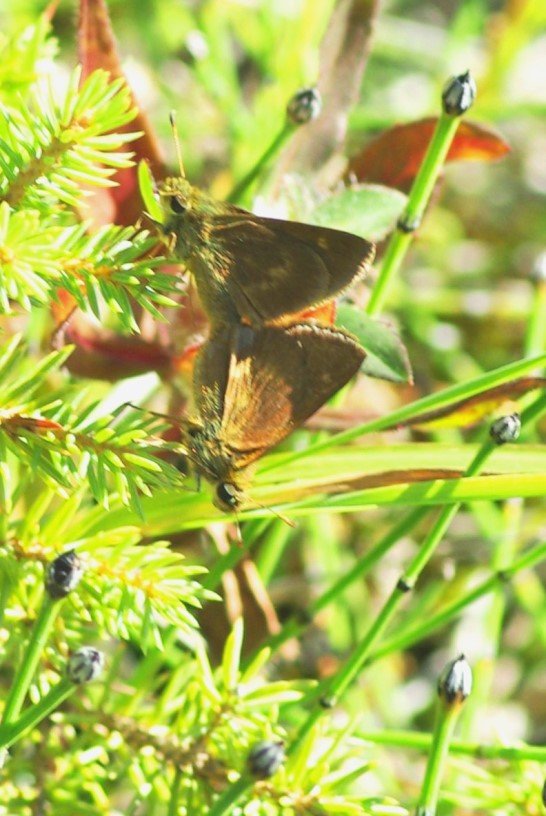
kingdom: Animalia
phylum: Arthropoda
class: Insecta
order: Lepidoptera
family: Hesperiidae
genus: Polites
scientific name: Polites egeremet
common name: Northern Broken-Dash
